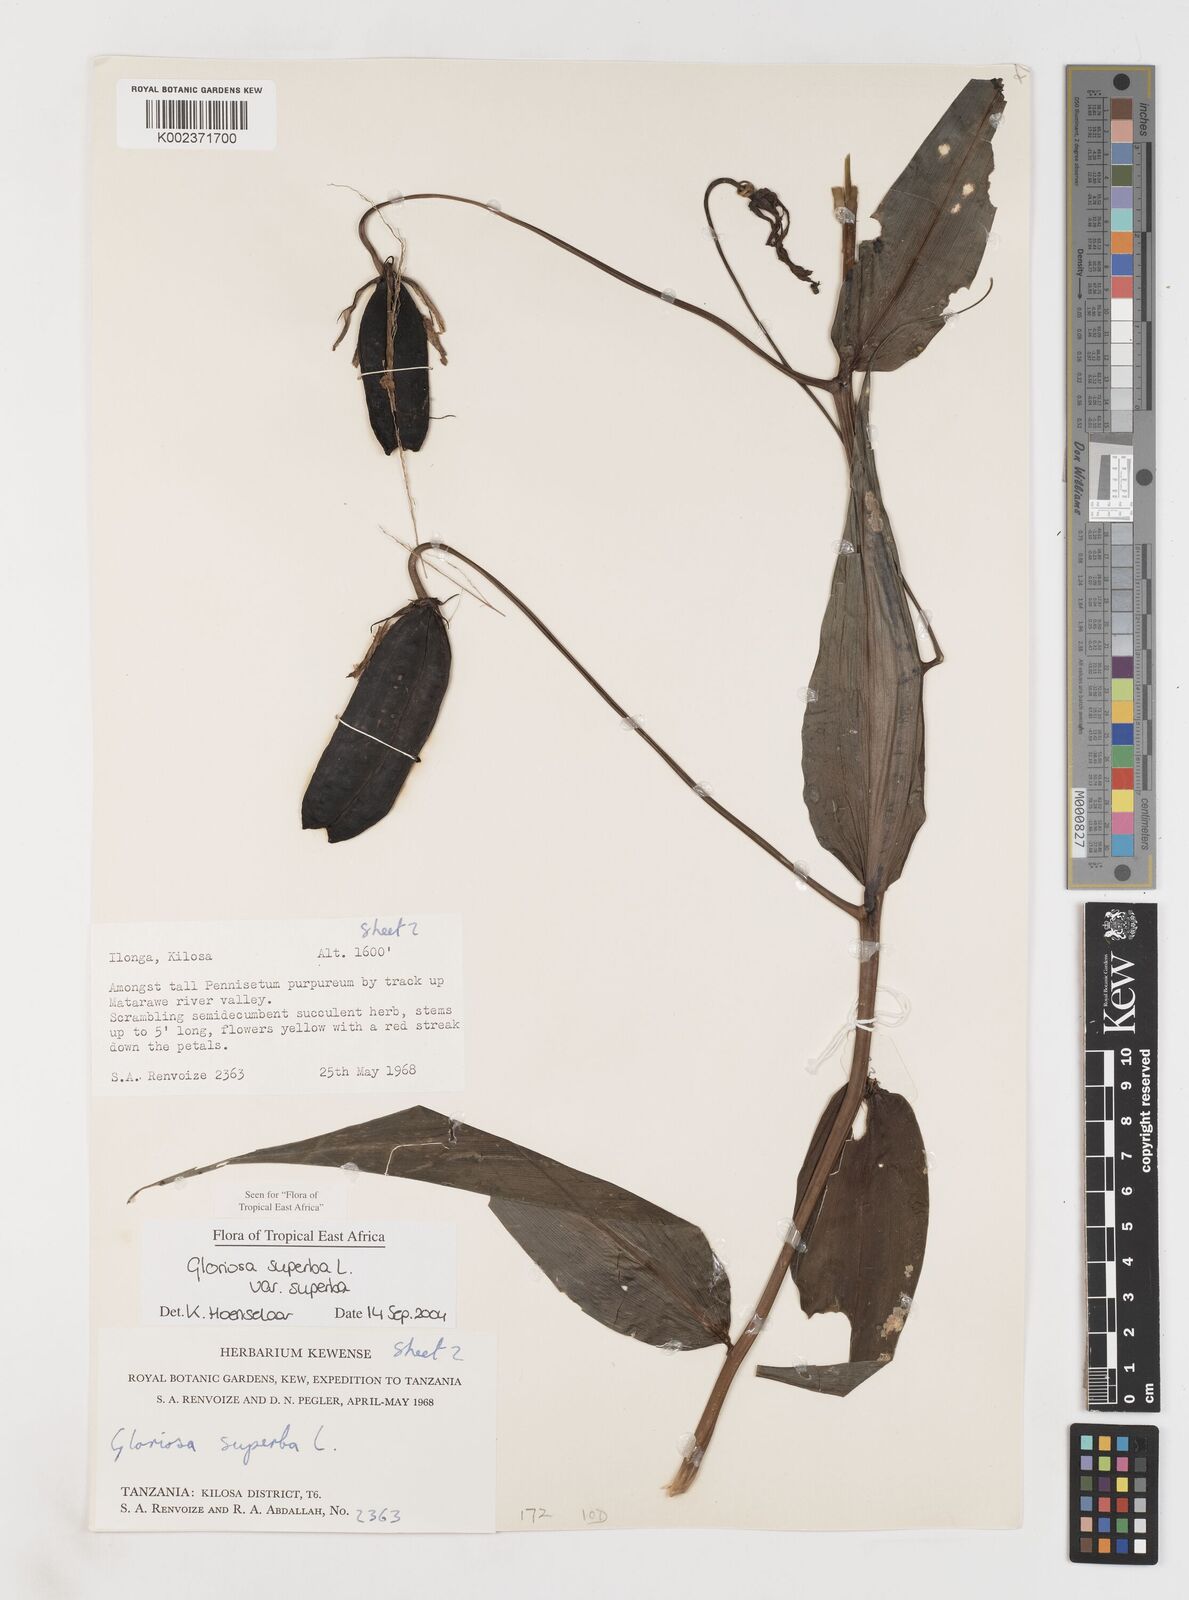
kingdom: Plantae
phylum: Tracheophyta
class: Liliopsida
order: Liliales
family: Colchicaceae
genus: Gloriosa
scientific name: Gloriosa simplex
